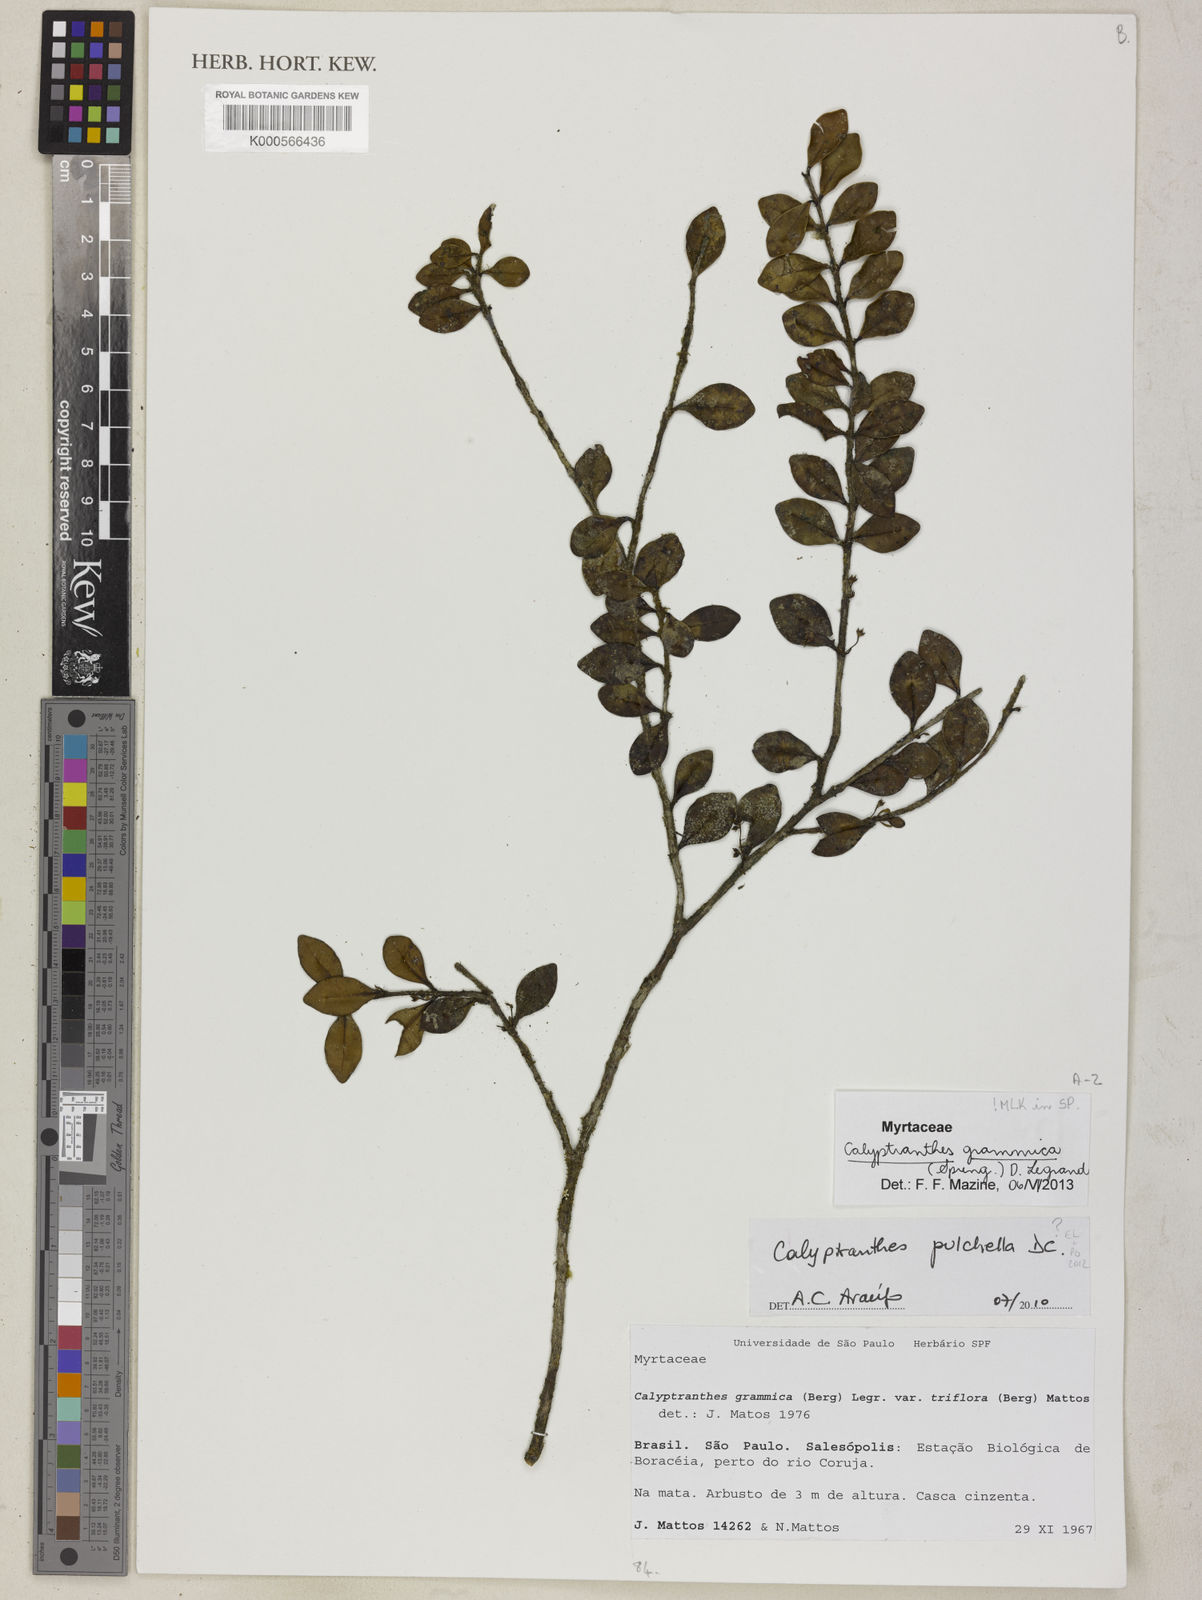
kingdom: Plantae
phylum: Tracheophyta
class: Magnoliopsida
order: Myrtales
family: Myrtaceae
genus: Myrcia
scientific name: Myrcia grammica
